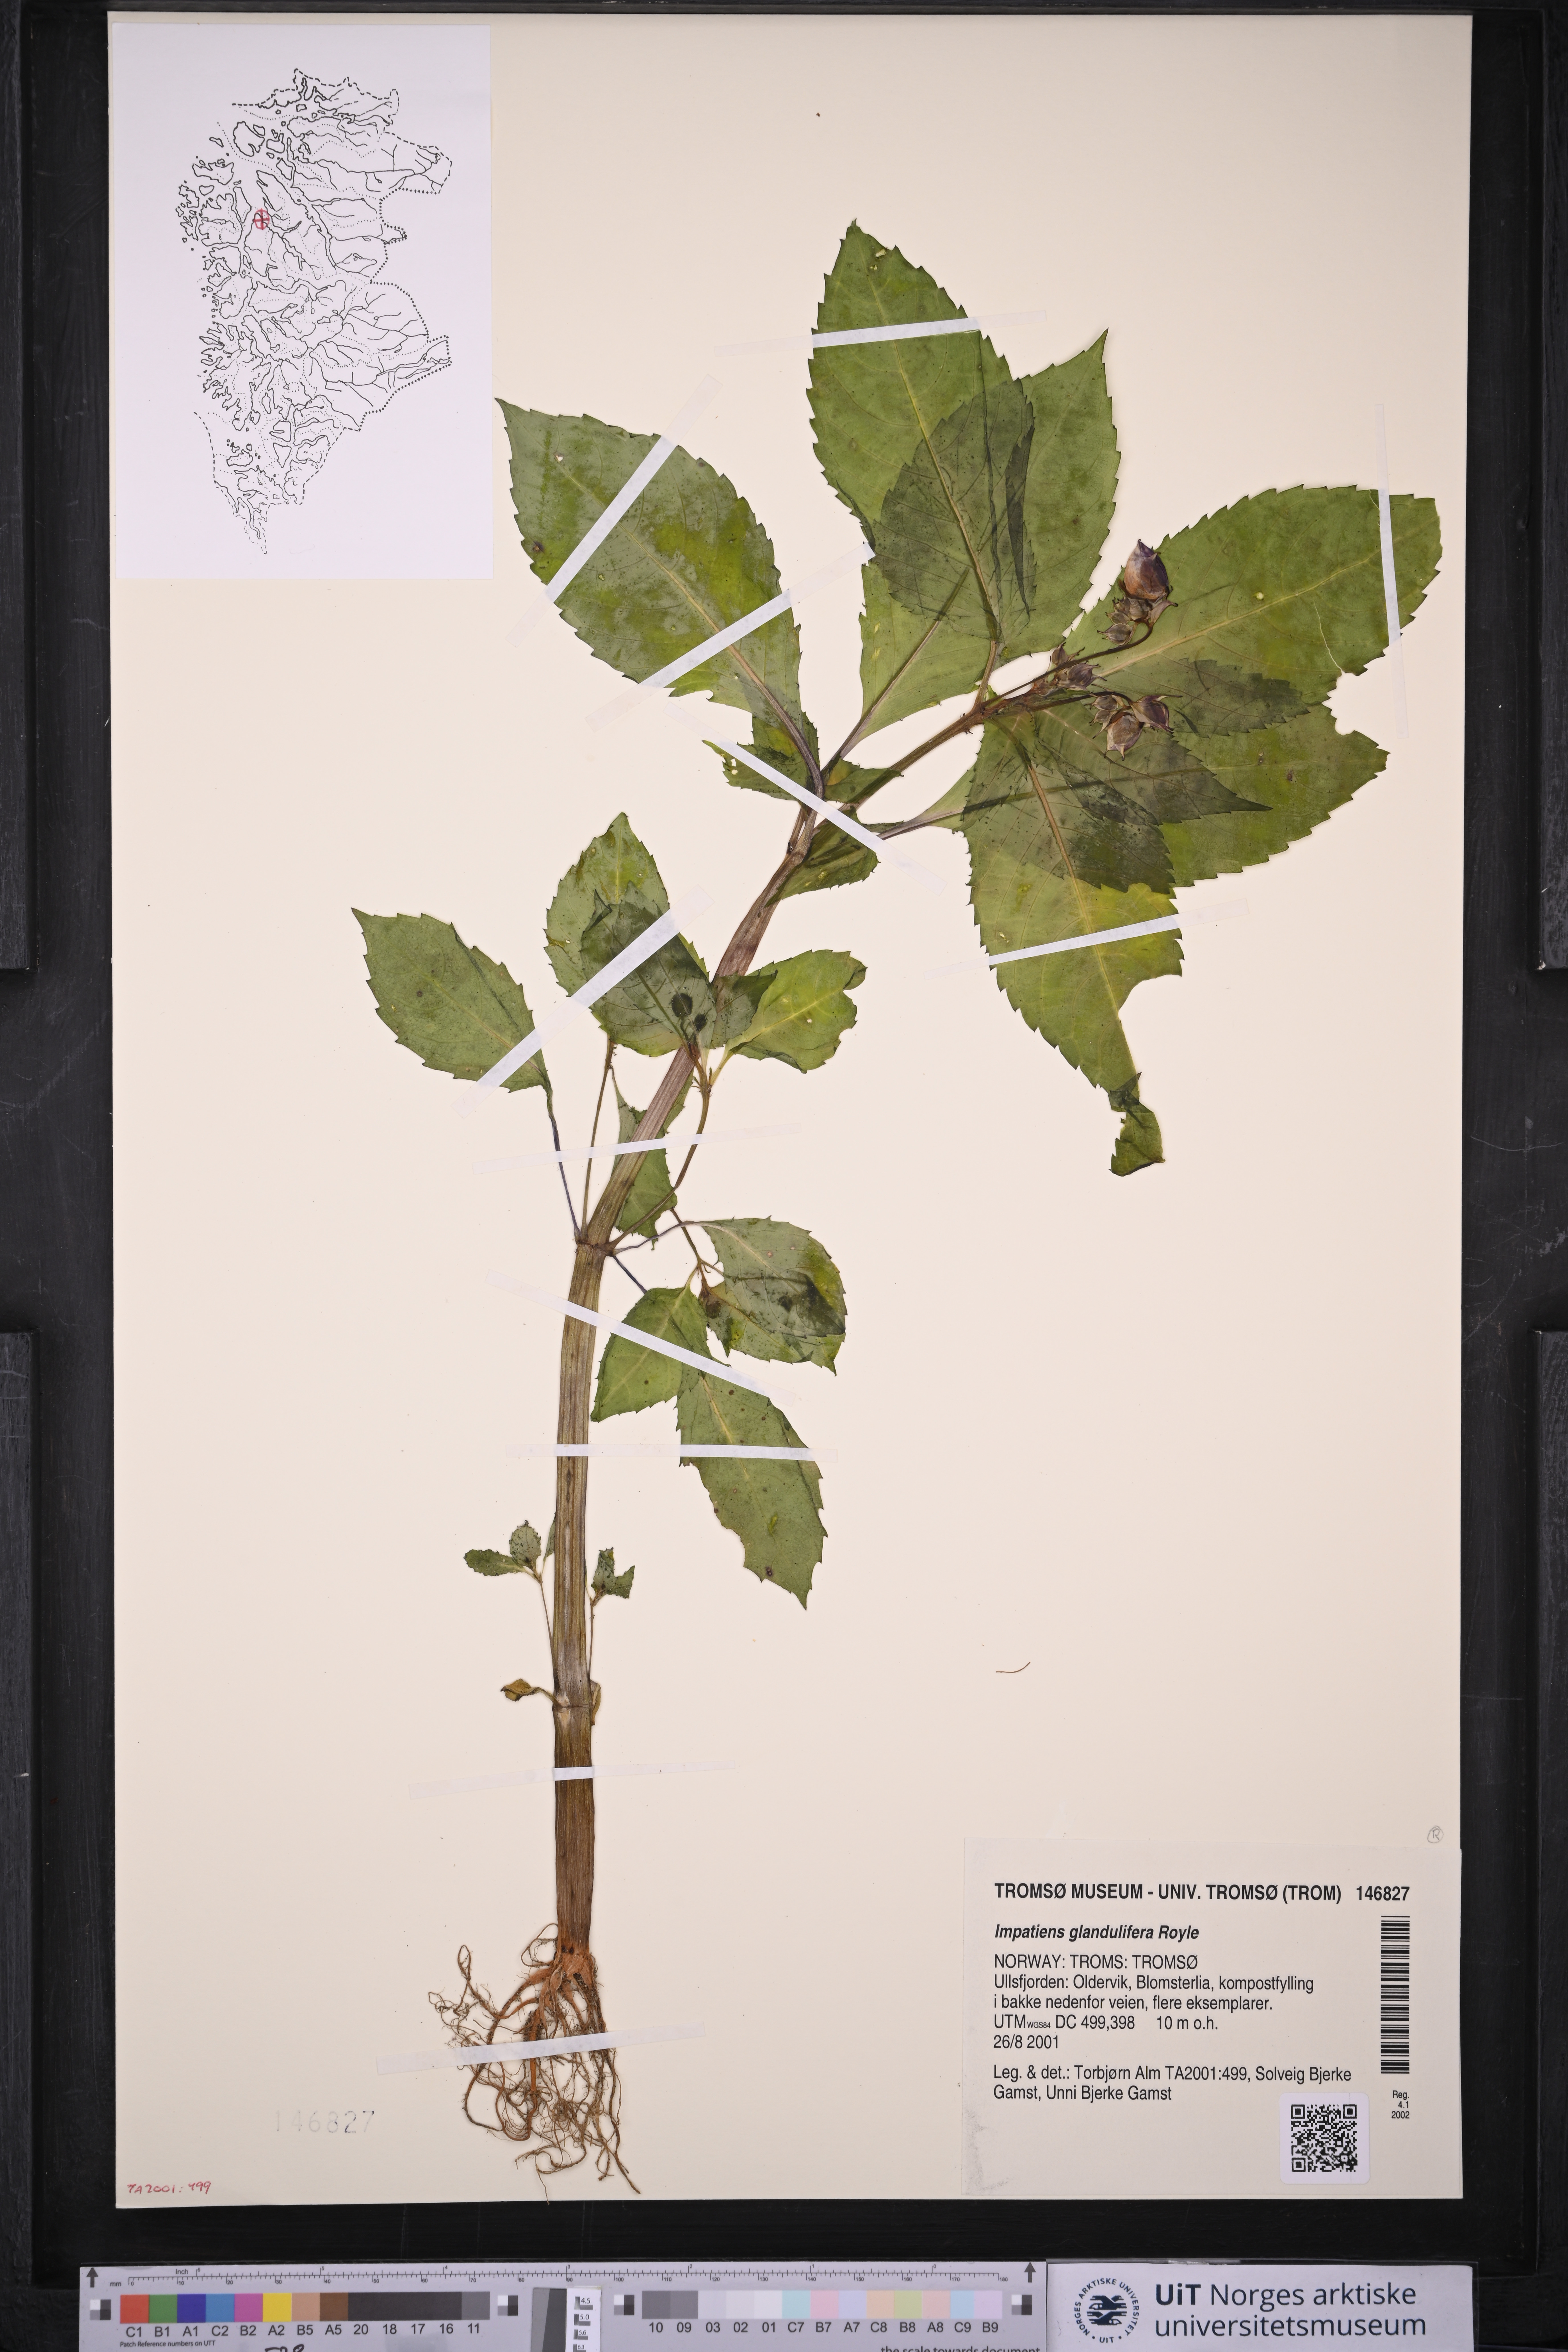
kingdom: Plantae
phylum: Tracheophyta
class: Magnoliopsida
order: Ericales
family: Balsaminaceae
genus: Impatiens
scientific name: Impatiens glandulifera
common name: Himalayan balsam
